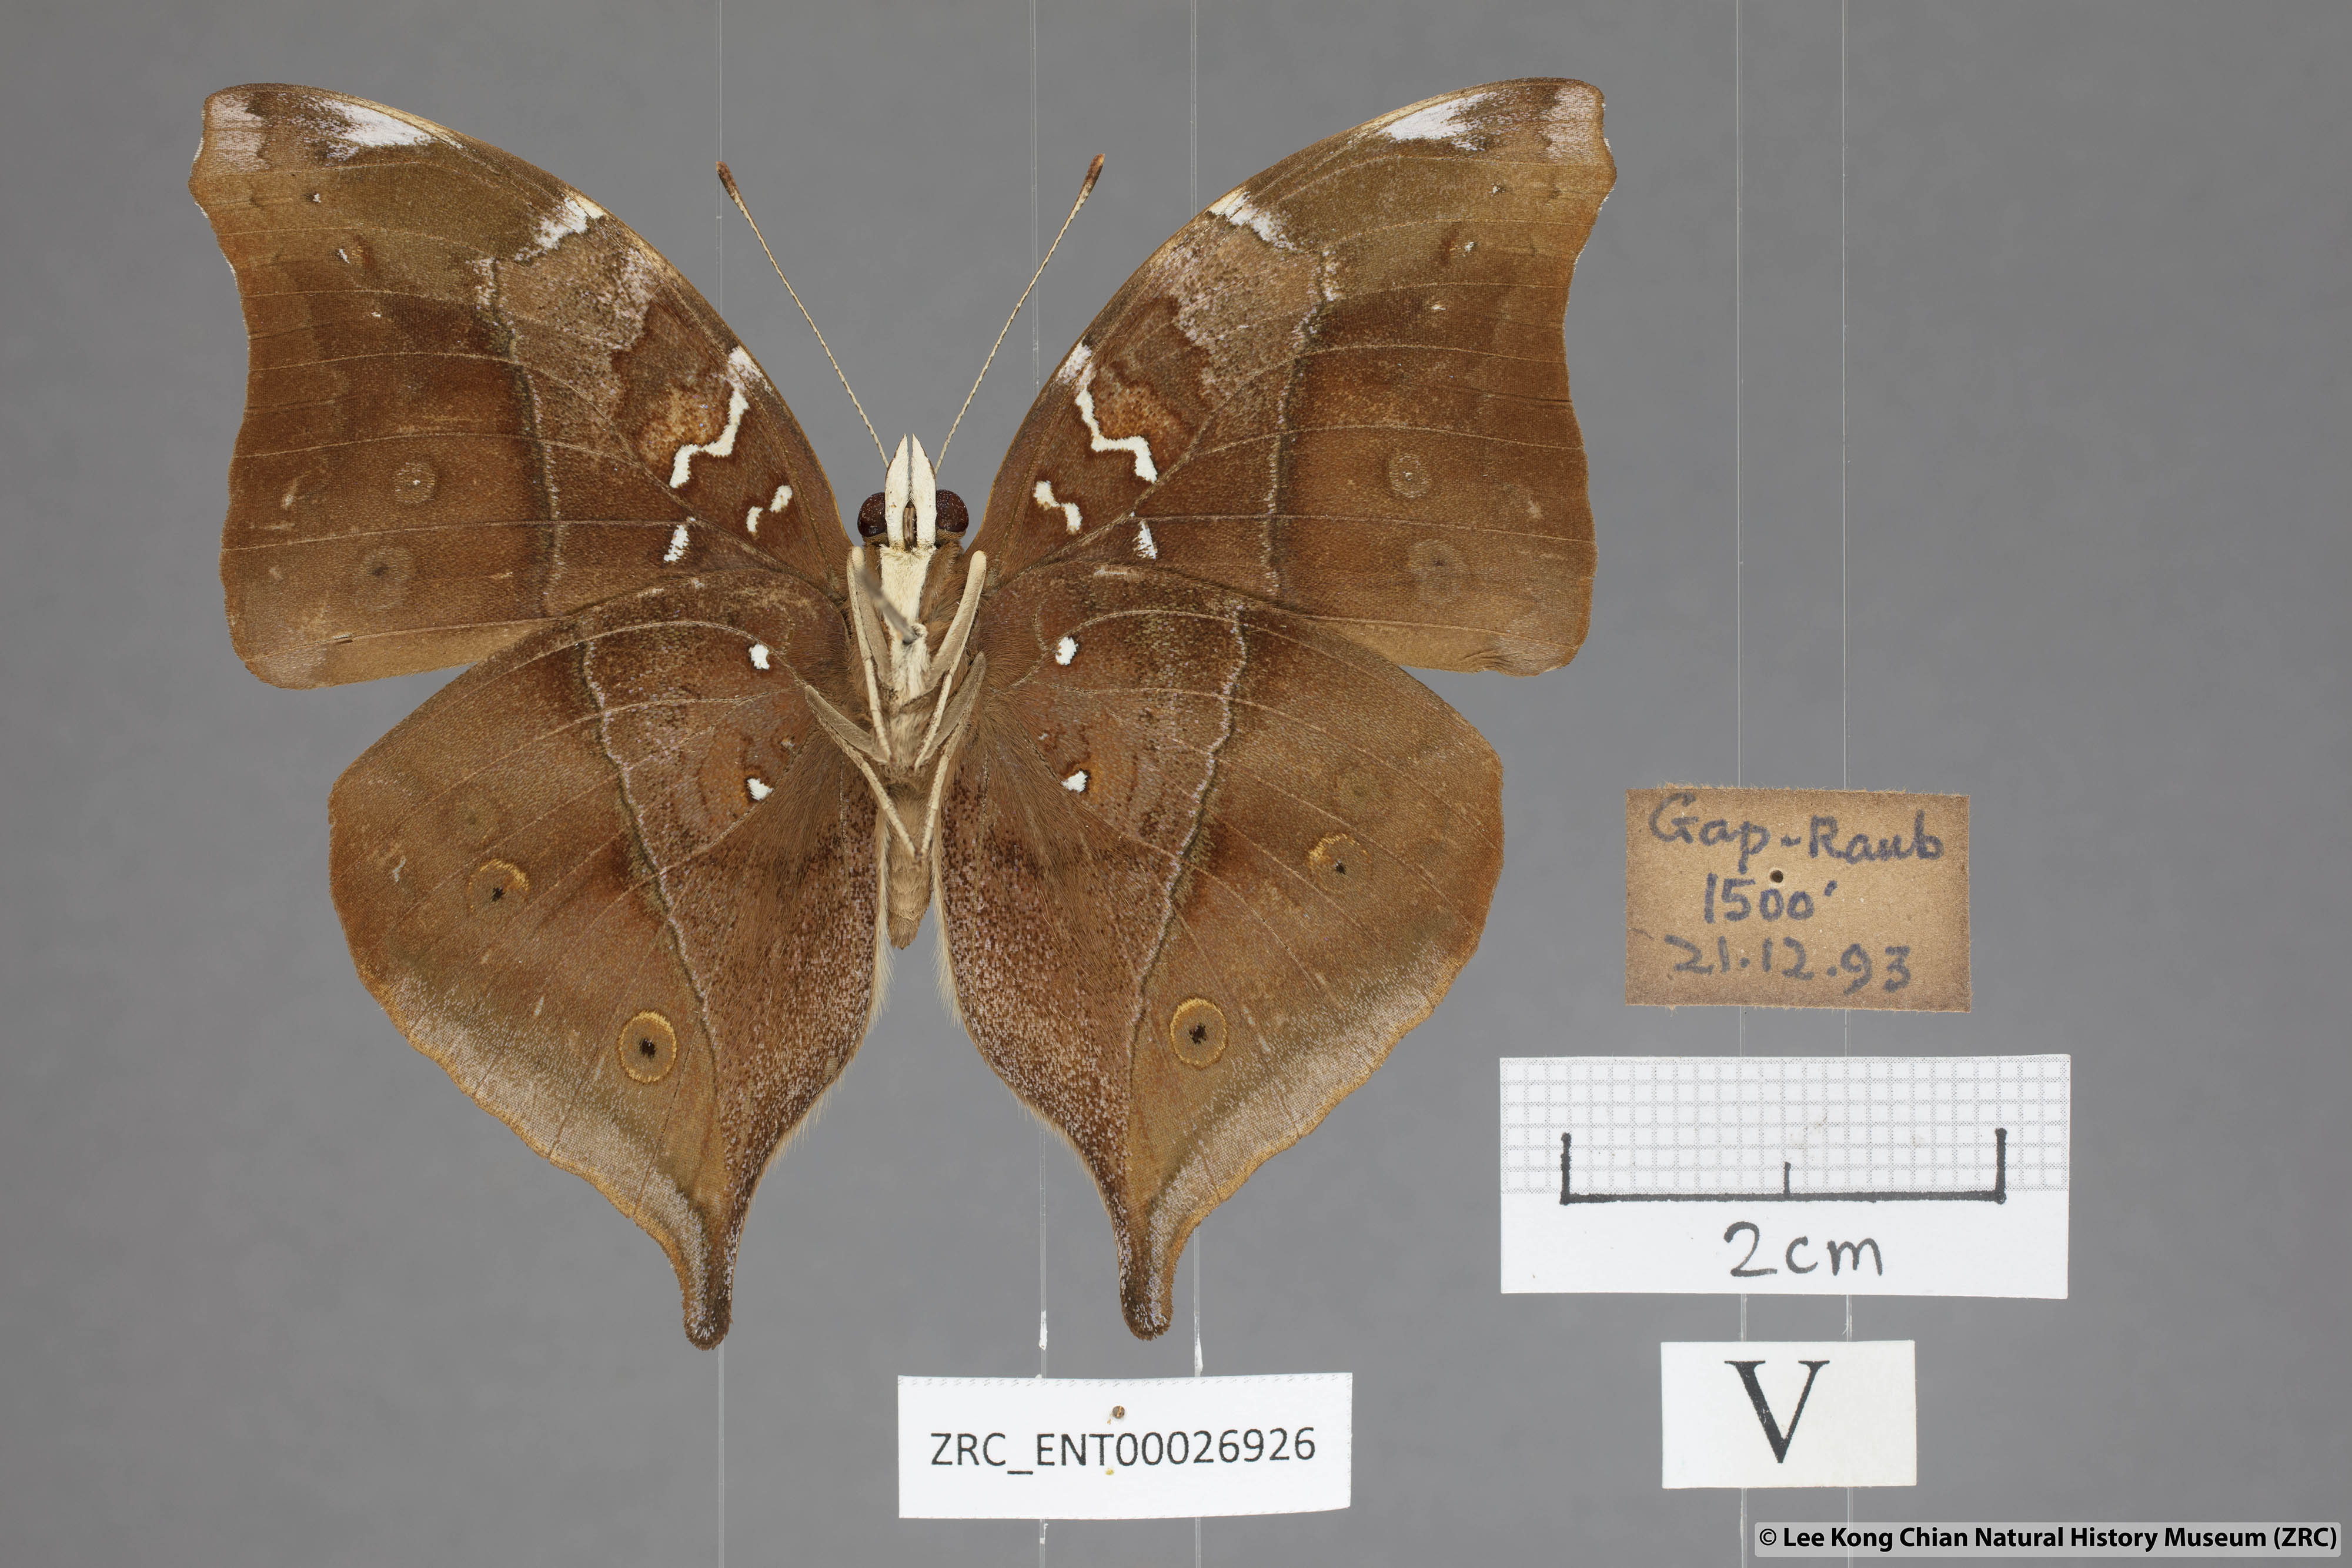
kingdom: Animalia
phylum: Arthropoda
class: Insecta
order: Lepidoptera
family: Nymphalidae
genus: Doleschallia
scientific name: Doleschallia bisaltide
